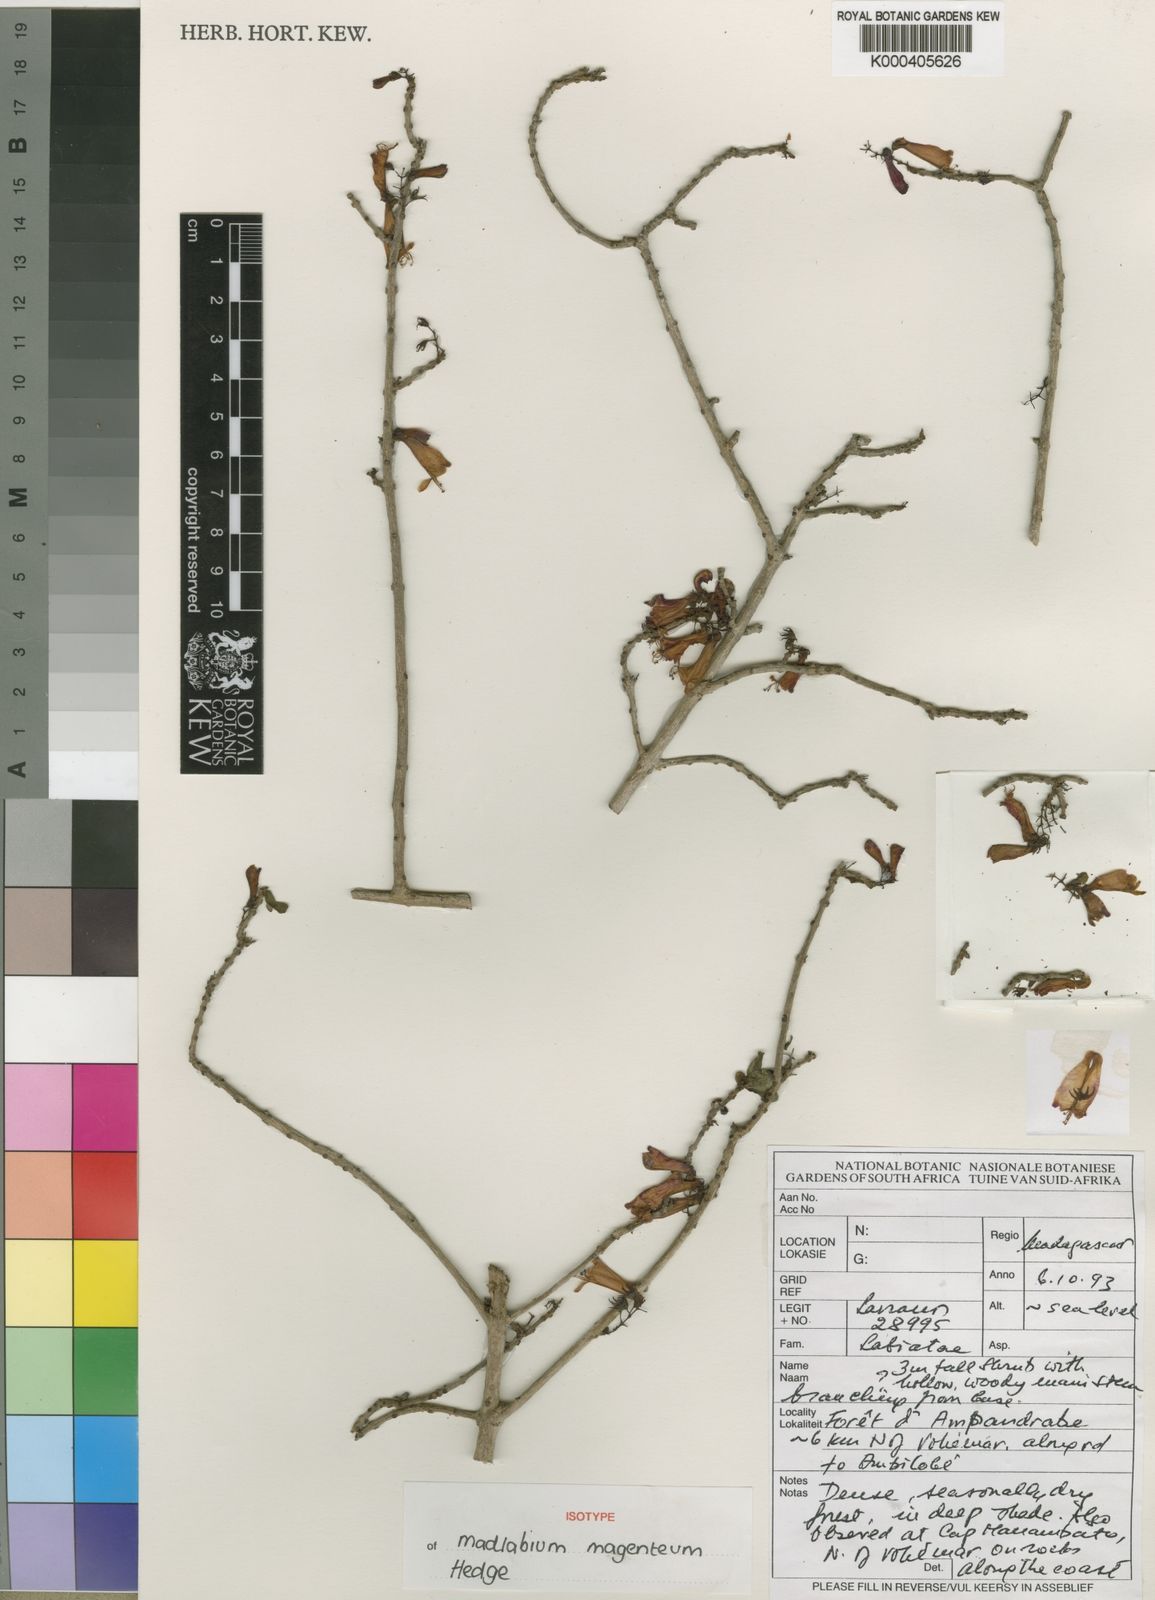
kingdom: Plantae
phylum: Tracheophyta
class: Magnoliopsida
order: Lamiales
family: Lamiaceae
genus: Capitanopsis
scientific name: Capitanopsis magentea
